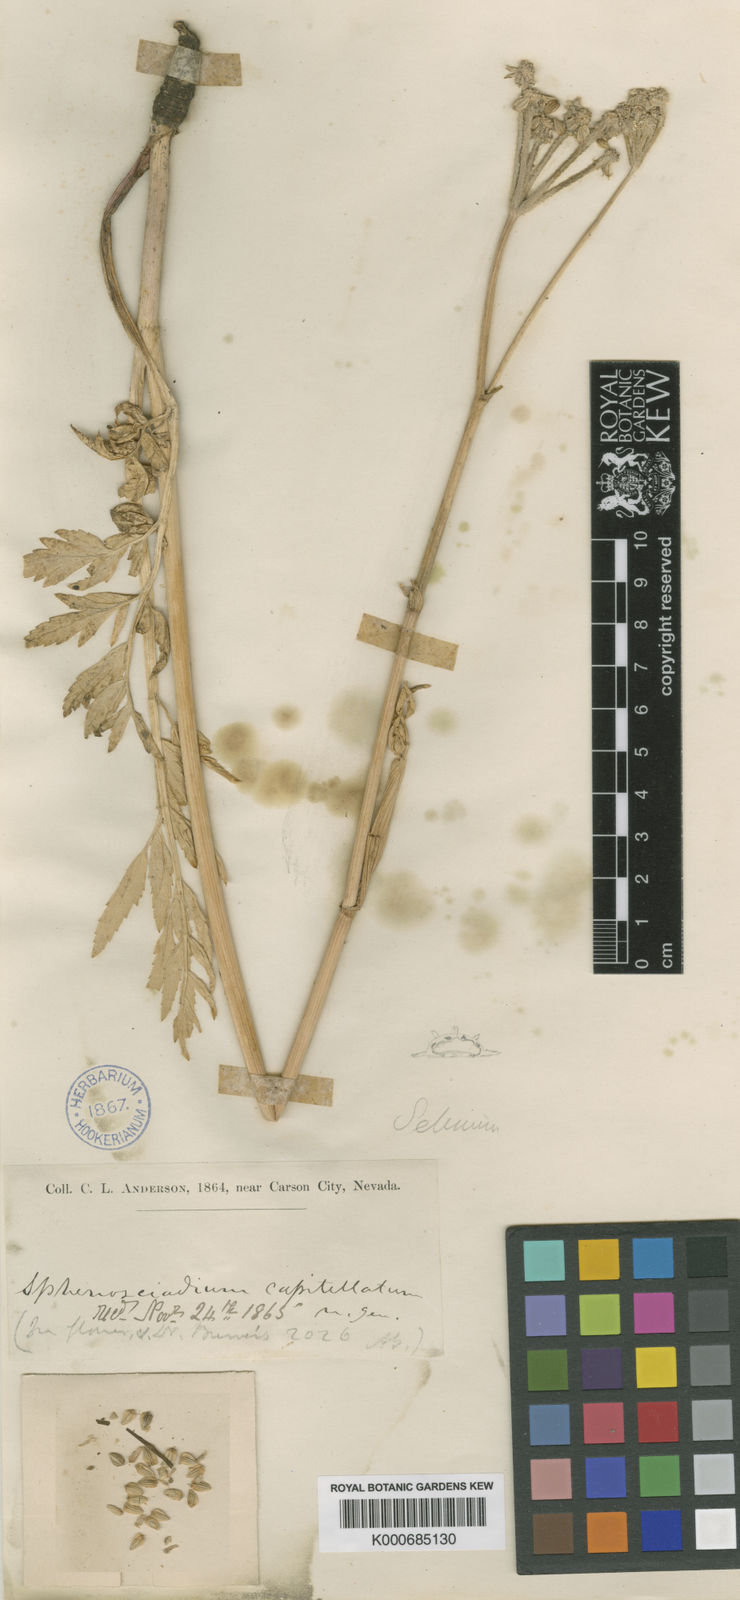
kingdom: Plantae
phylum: Tracheophyta
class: Magnoliopsida
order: Apiales
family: Apiaceae
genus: Angelica
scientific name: Angelica capitellata
